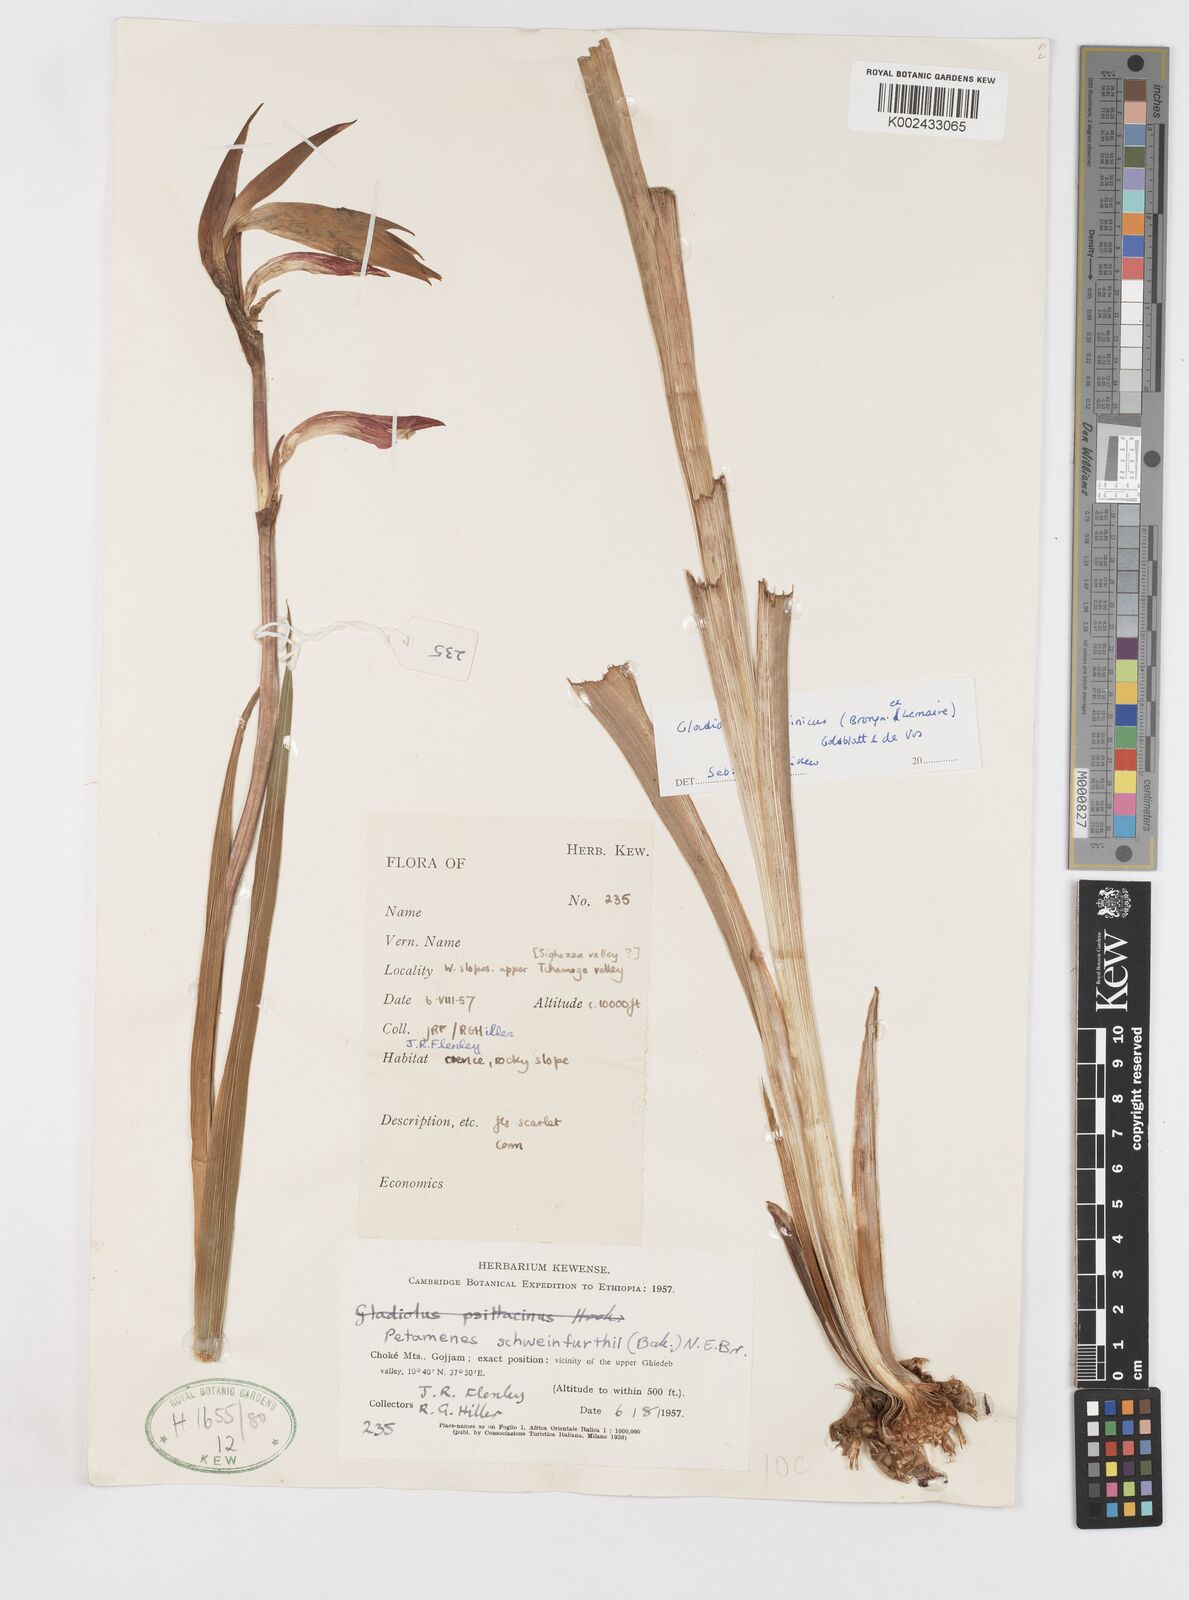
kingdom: Plantae
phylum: Tracheophyta
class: Liliopsida
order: Asparagales
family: Iridaceae
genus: Gladiolus
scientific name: Gladiolus abyssinicus
